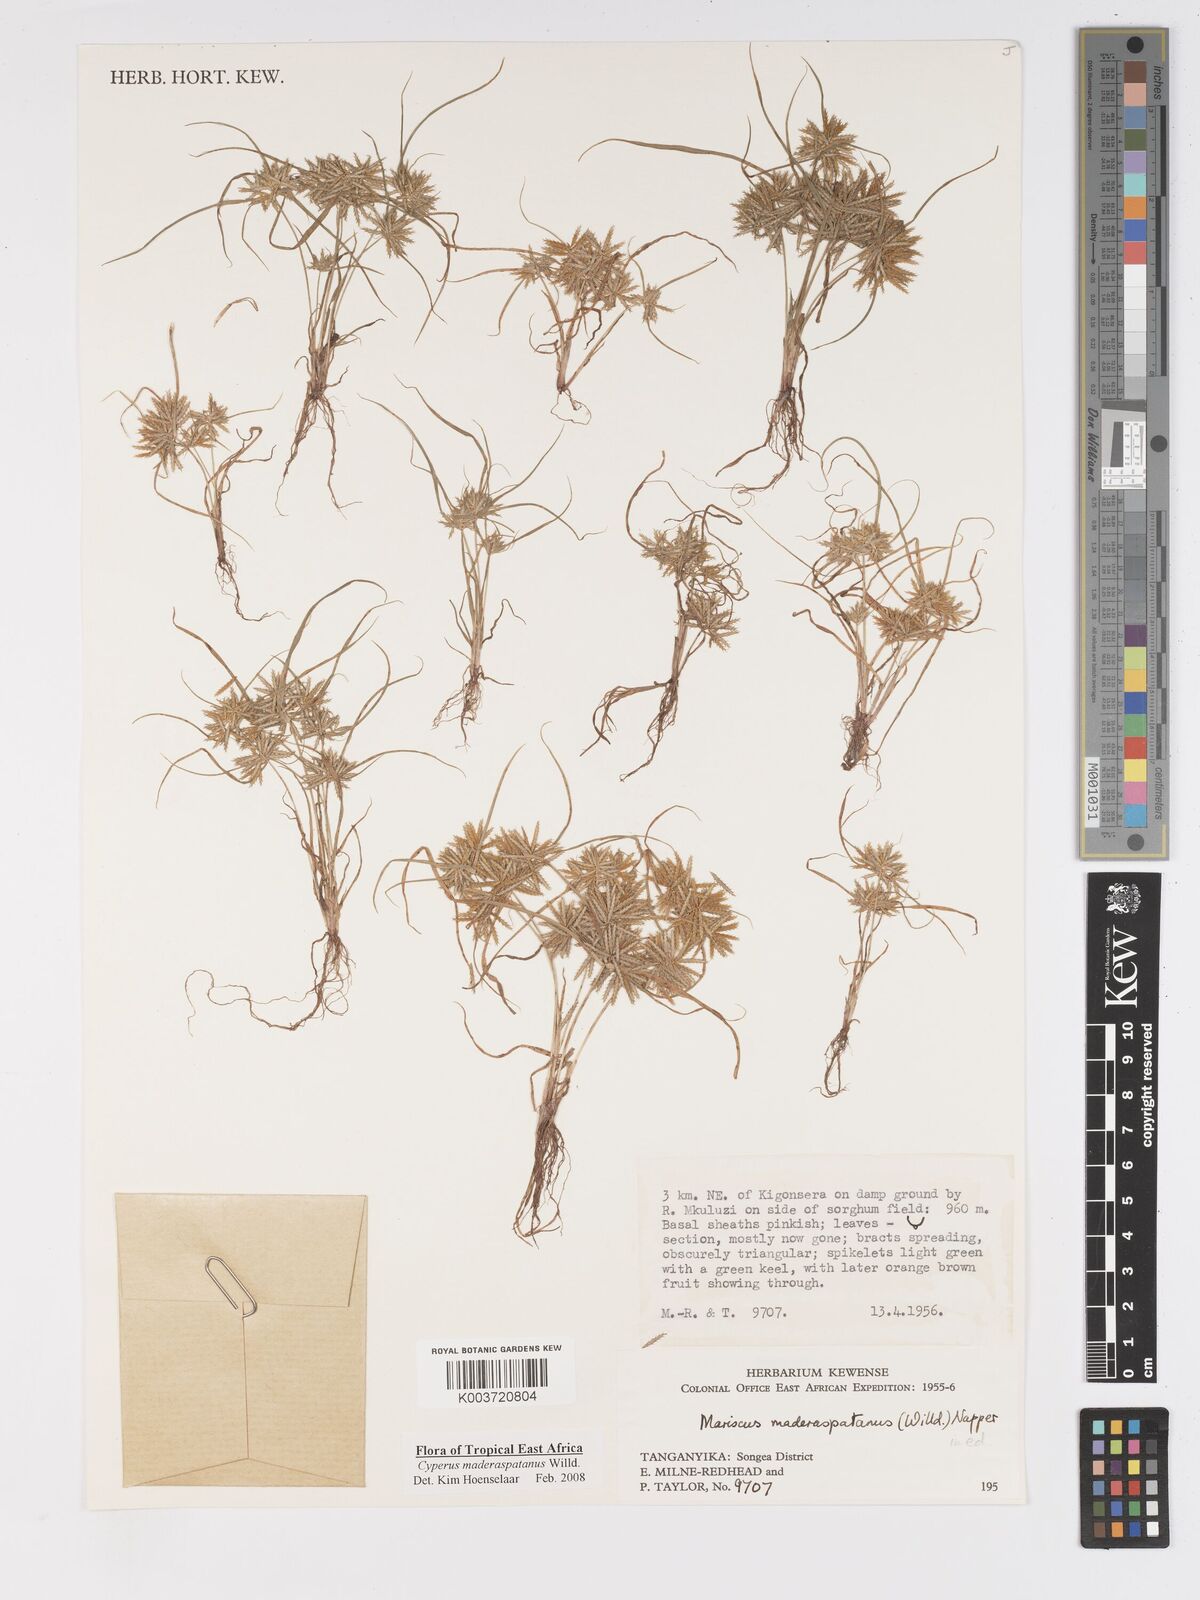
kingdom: Plantae
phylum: Tracheophyta
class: Liliopsida
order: Poales
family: Cyperaceae
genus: Cyperus
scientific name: Cyperus maderaspatanus
